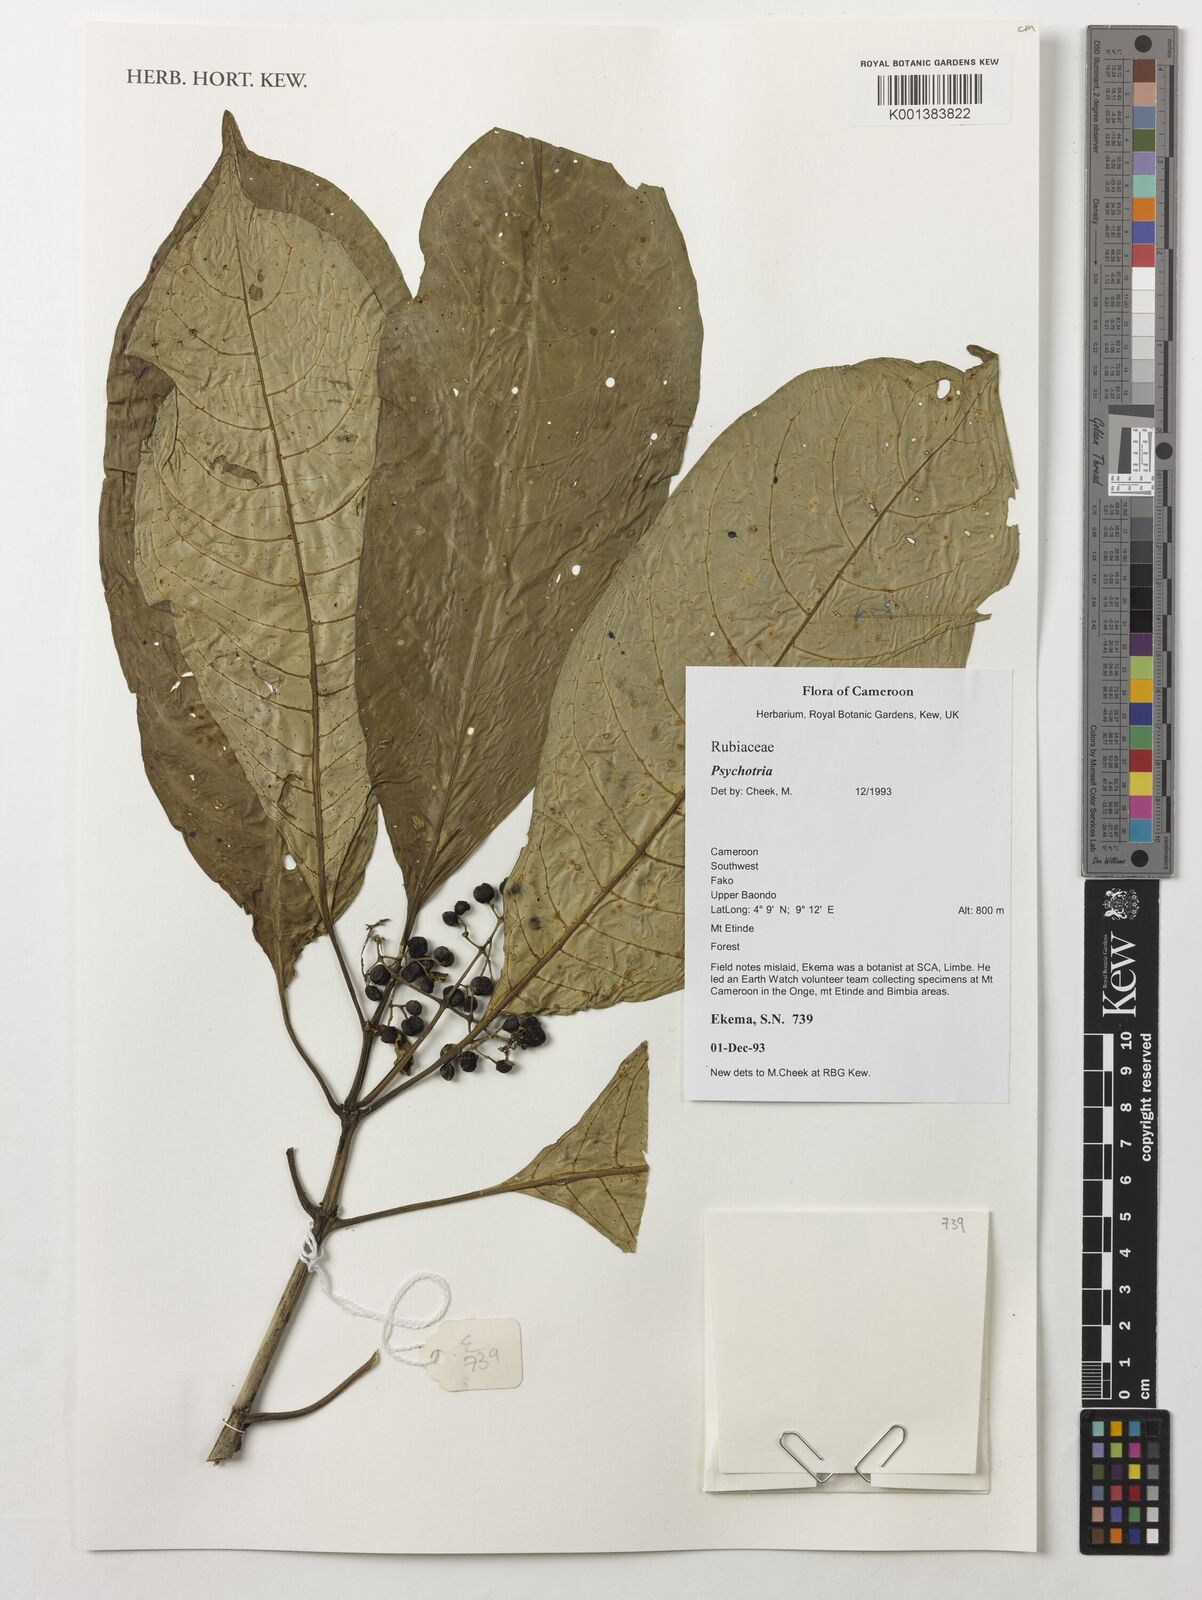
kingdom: Plantae
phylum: Tracheophyta
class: Magnoliopsida
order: Gentianales
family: Rubiaceae
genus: Psychotria
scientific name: Psychotria
